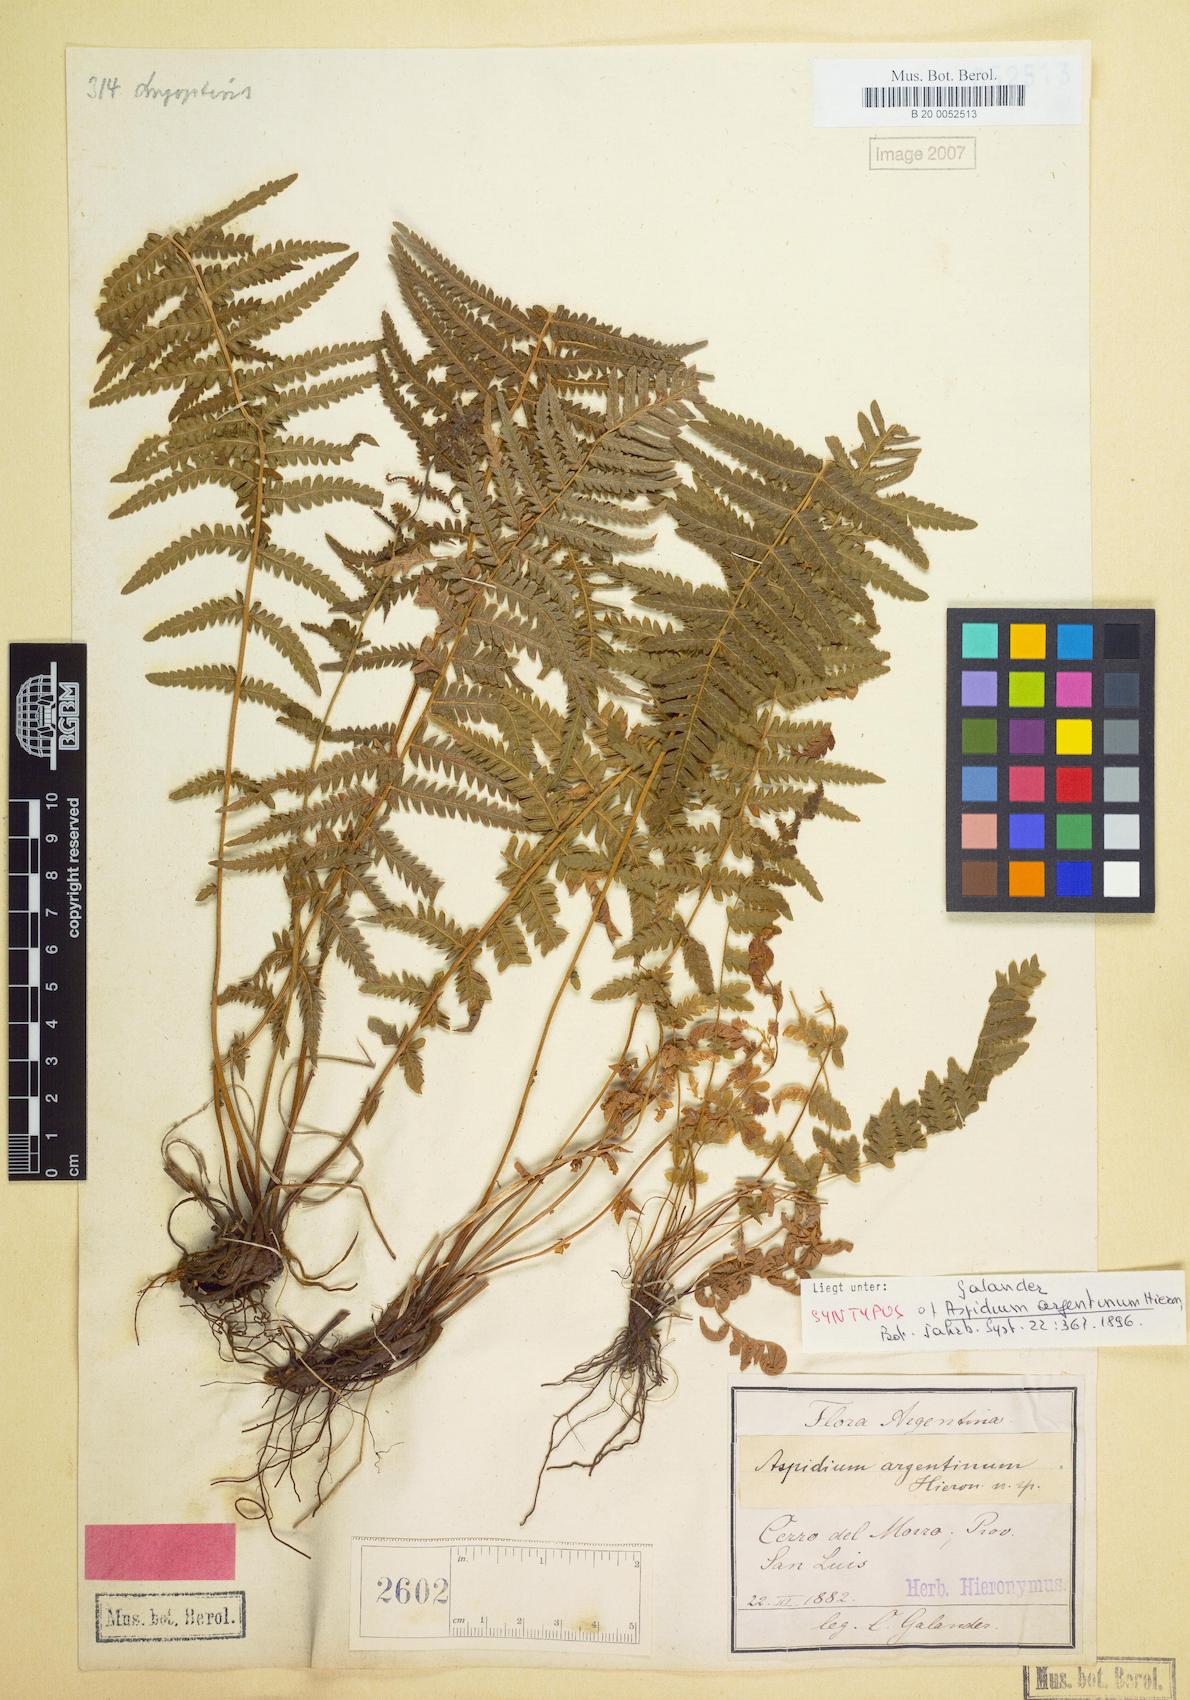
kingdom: Plantae
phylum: Tracheophyta
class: Polypodiopsida
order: Polypodiales
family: Thelypteridaceae
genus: Amauropelta
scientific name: Amauropelta argentina
